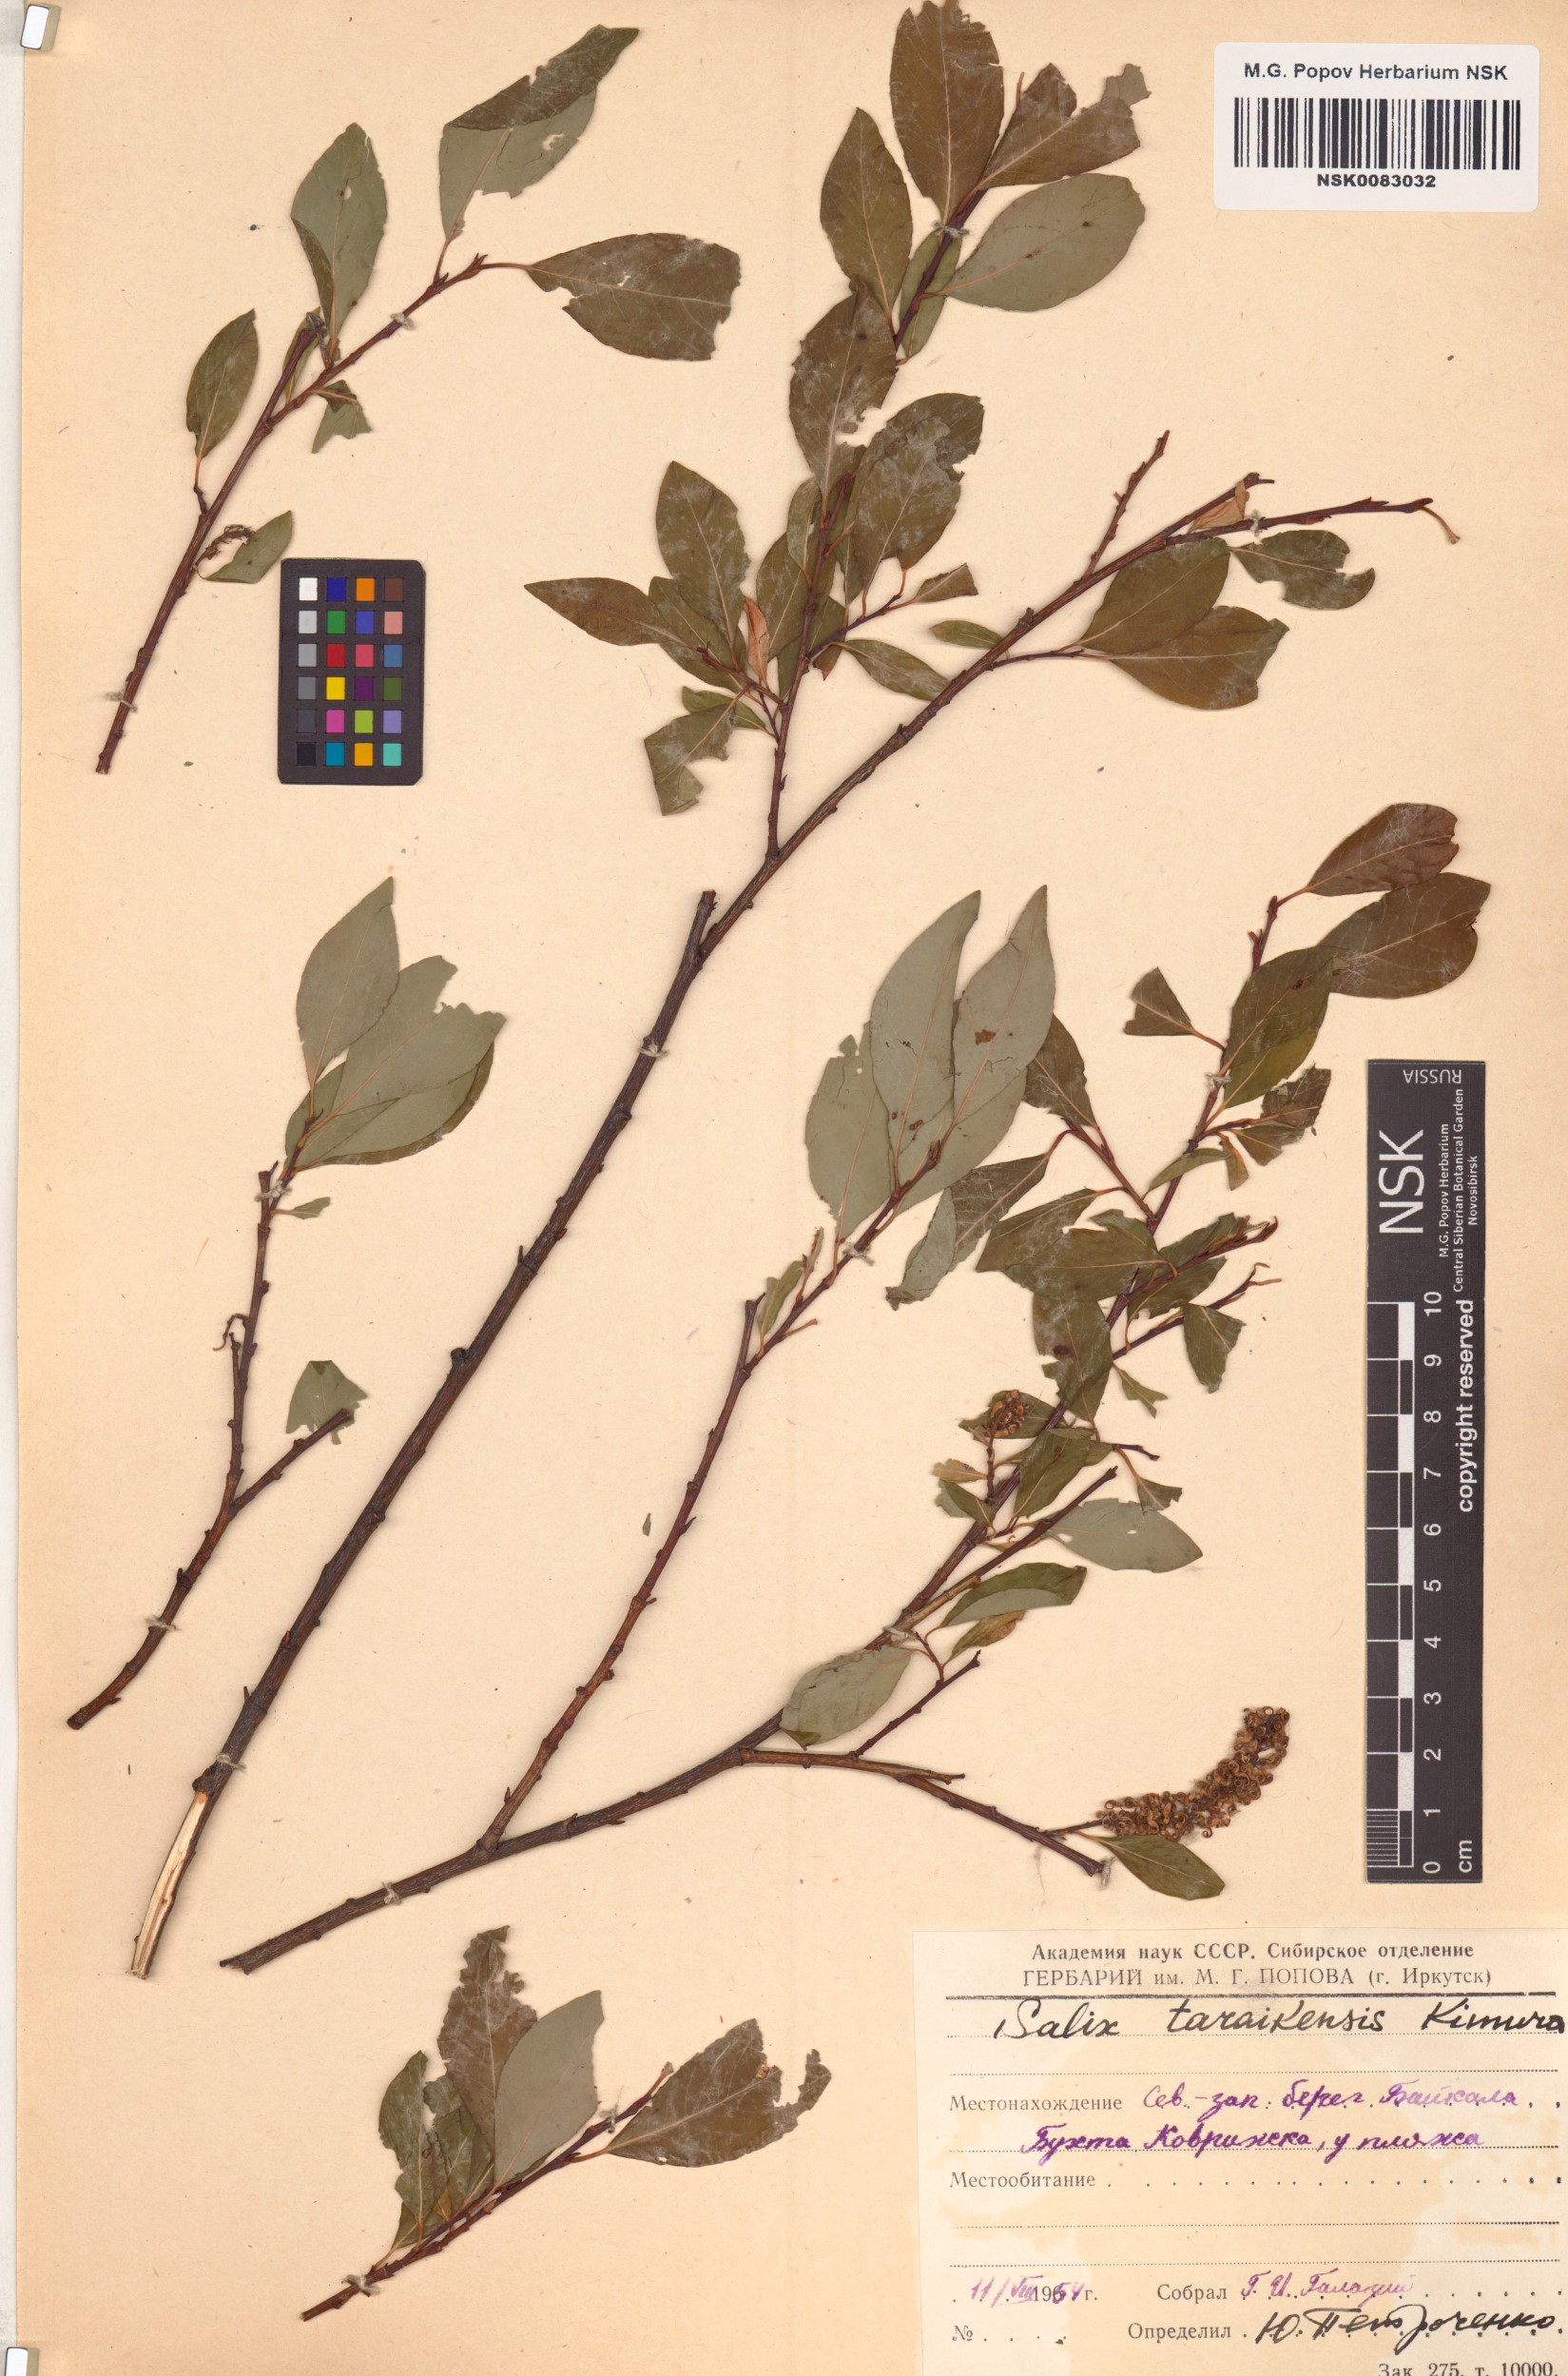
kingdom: Plantae
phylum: Tracheophyta
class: Magnoliopsida
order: Malpighiales
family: Salicaceae
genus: Salix
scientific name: Salix taraikensis
